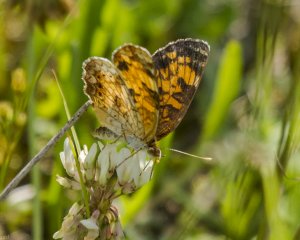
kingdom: Animalia
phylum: Arthropoda
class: Insecta
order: Lepidoptera
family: Nymphalidae
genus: Phyciodes
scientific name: Phyciodes tharos
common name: Northern Crescent
